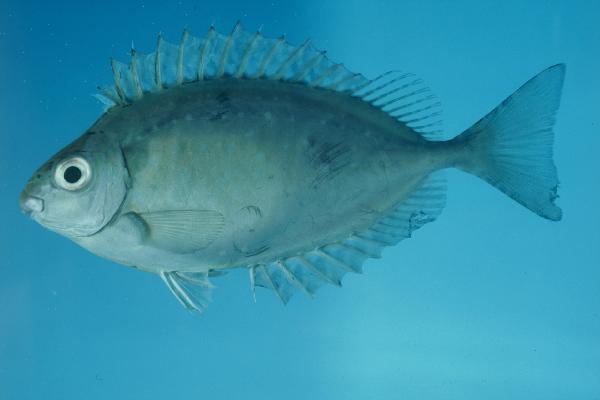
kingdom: Animalia
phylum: Chordata
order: Perciformes
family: Siganidae
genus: Siganus
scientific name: Siganus luridus
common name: Dusky spinefoot
